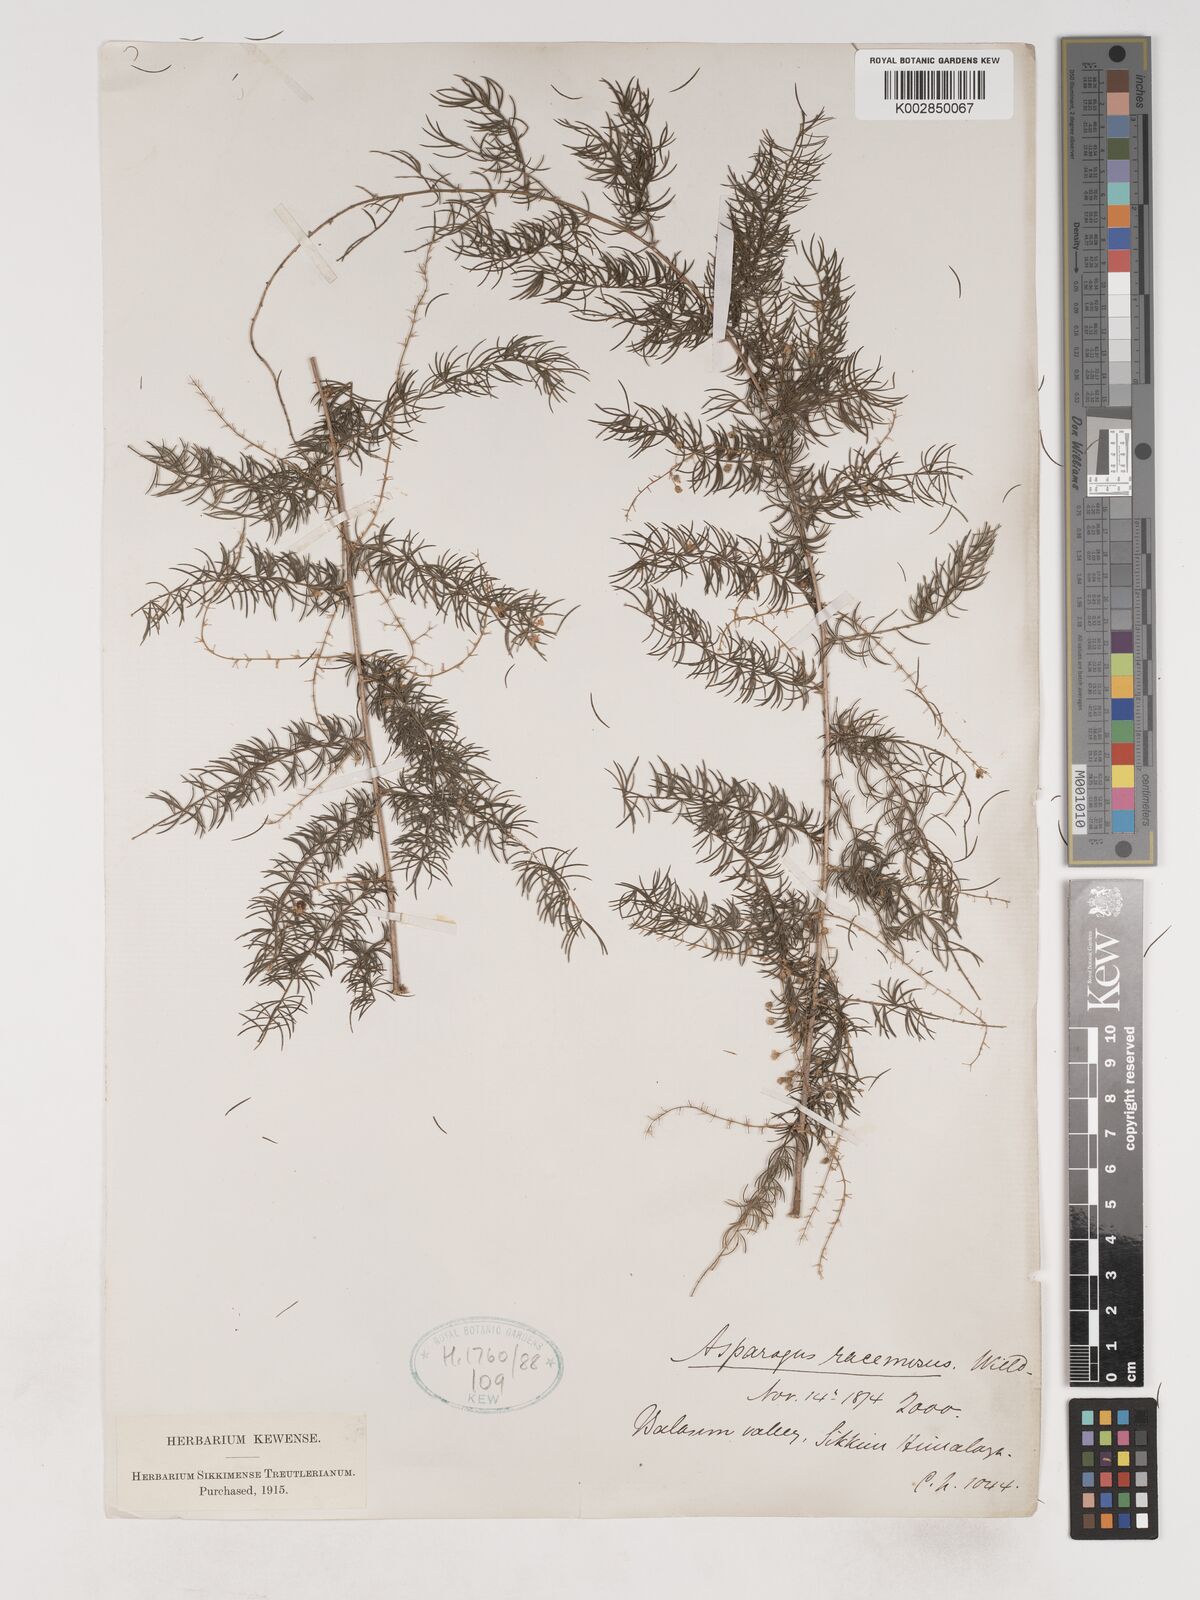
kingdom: Plantae
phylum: Tracheophyta
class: Liliopsida
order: Asparagales
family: Asparagaceae
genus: Asparagus
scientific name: Asparagus racemosus
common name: Asparagus-fern
